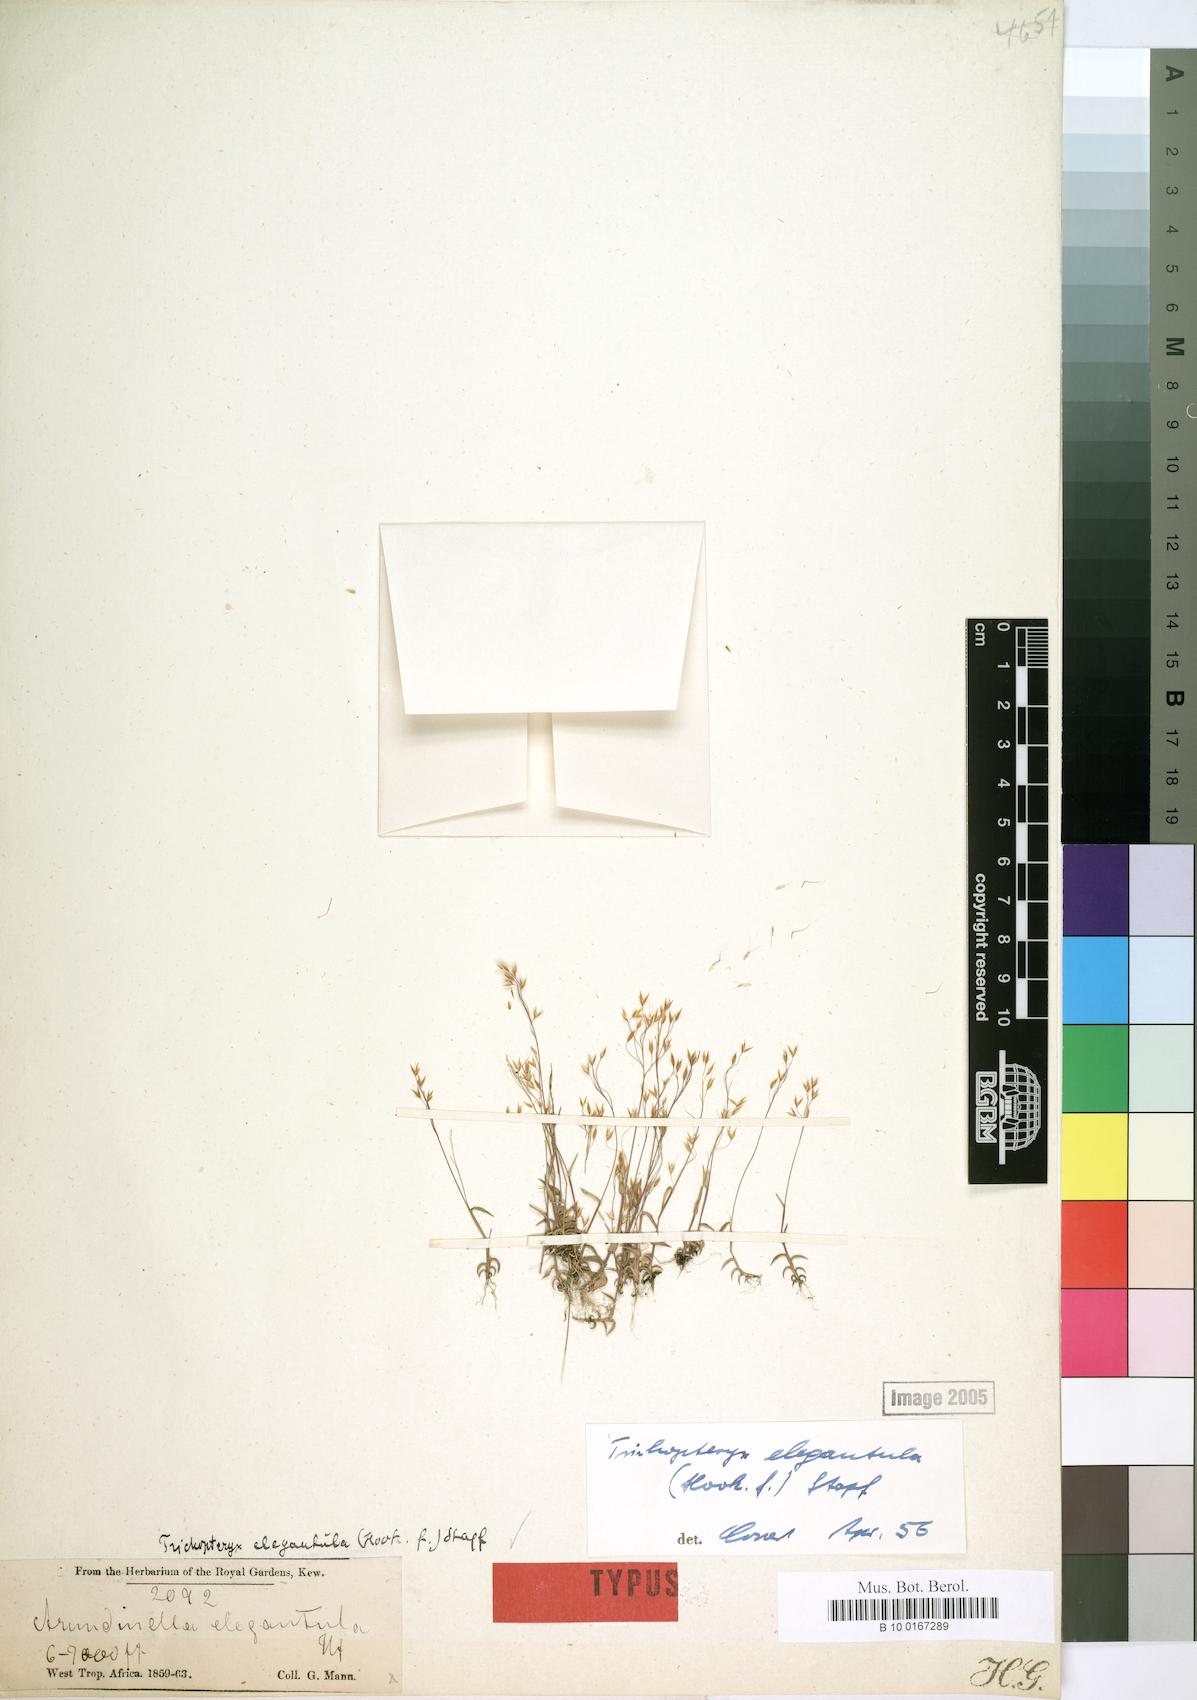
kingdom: Plantae
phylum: Tracheophyta
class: Liliopsida
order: Poales
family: Poaceae
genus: Trichopteryx
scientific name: Trichopteryx elegantula
